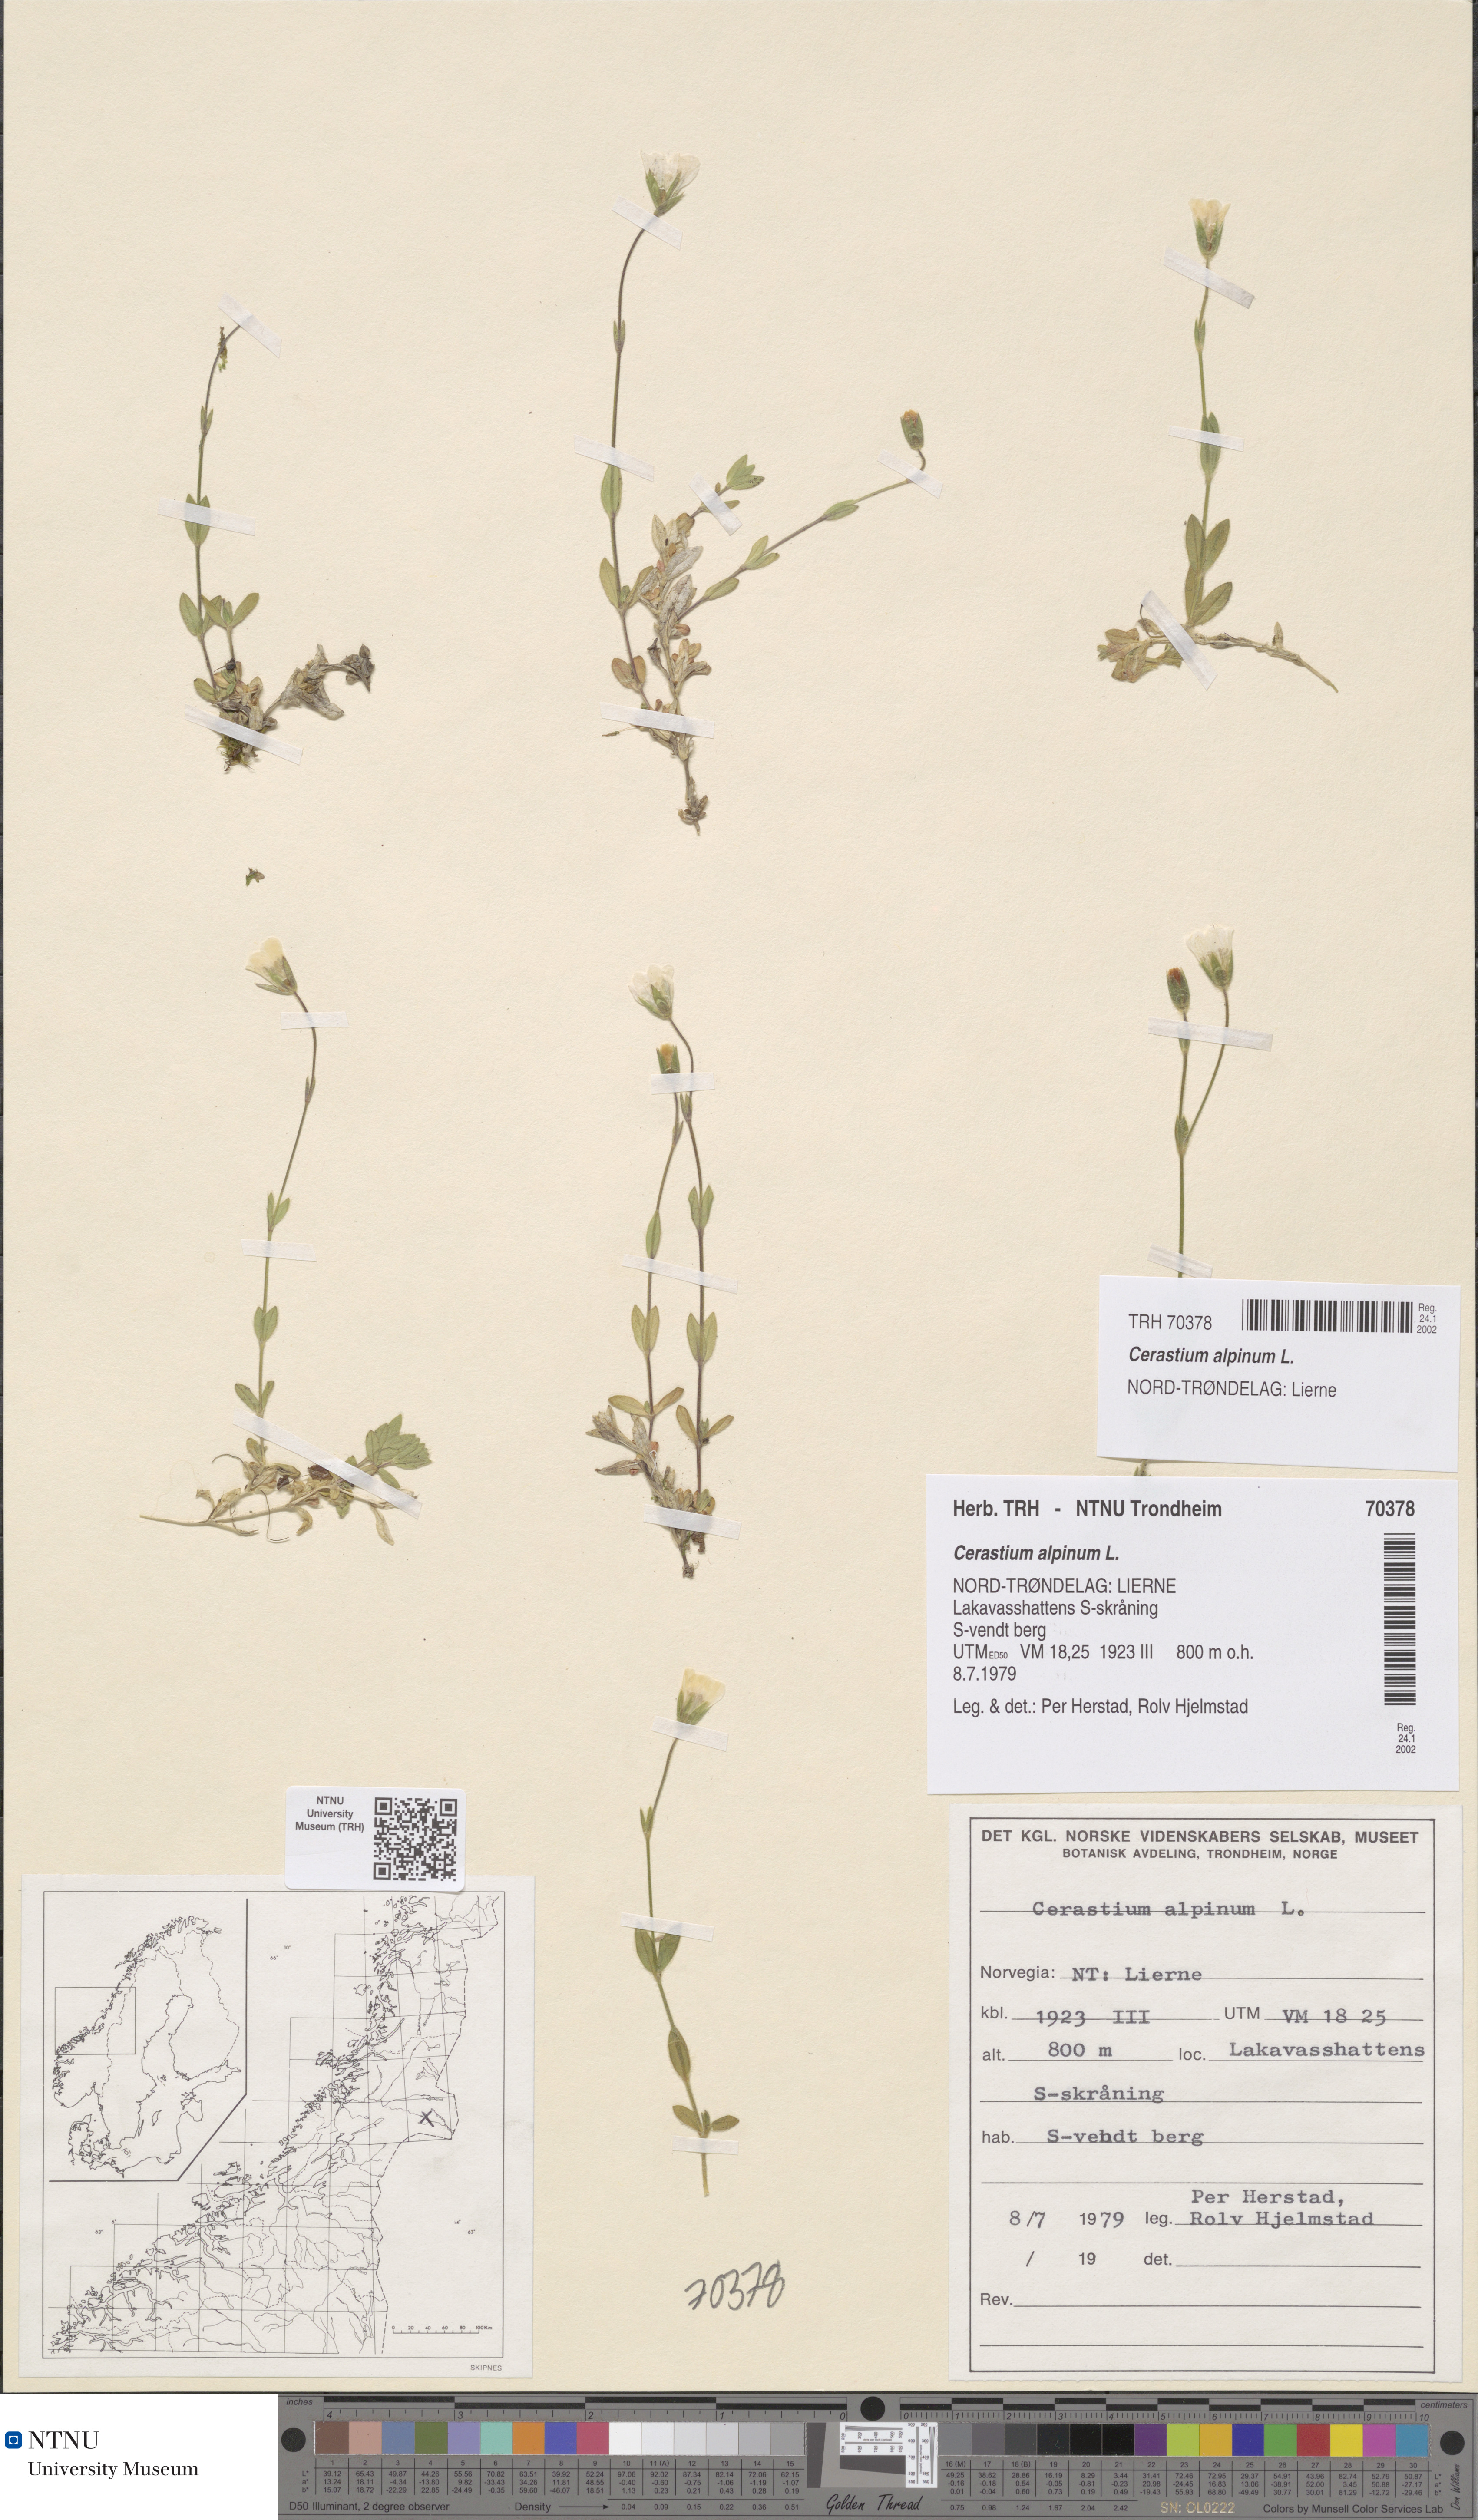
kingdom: Plantae
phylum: Tracheophyta
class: Magnoliopsida
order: Caryophyllales
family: Caryophyllaceae
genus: Cerastium
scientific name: Cerastium alpinum
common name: Alpine mouse-ear
